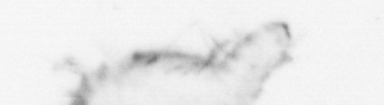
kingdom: Animalia
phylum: Annelida
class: Polychaeta
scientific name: Polychaeta
